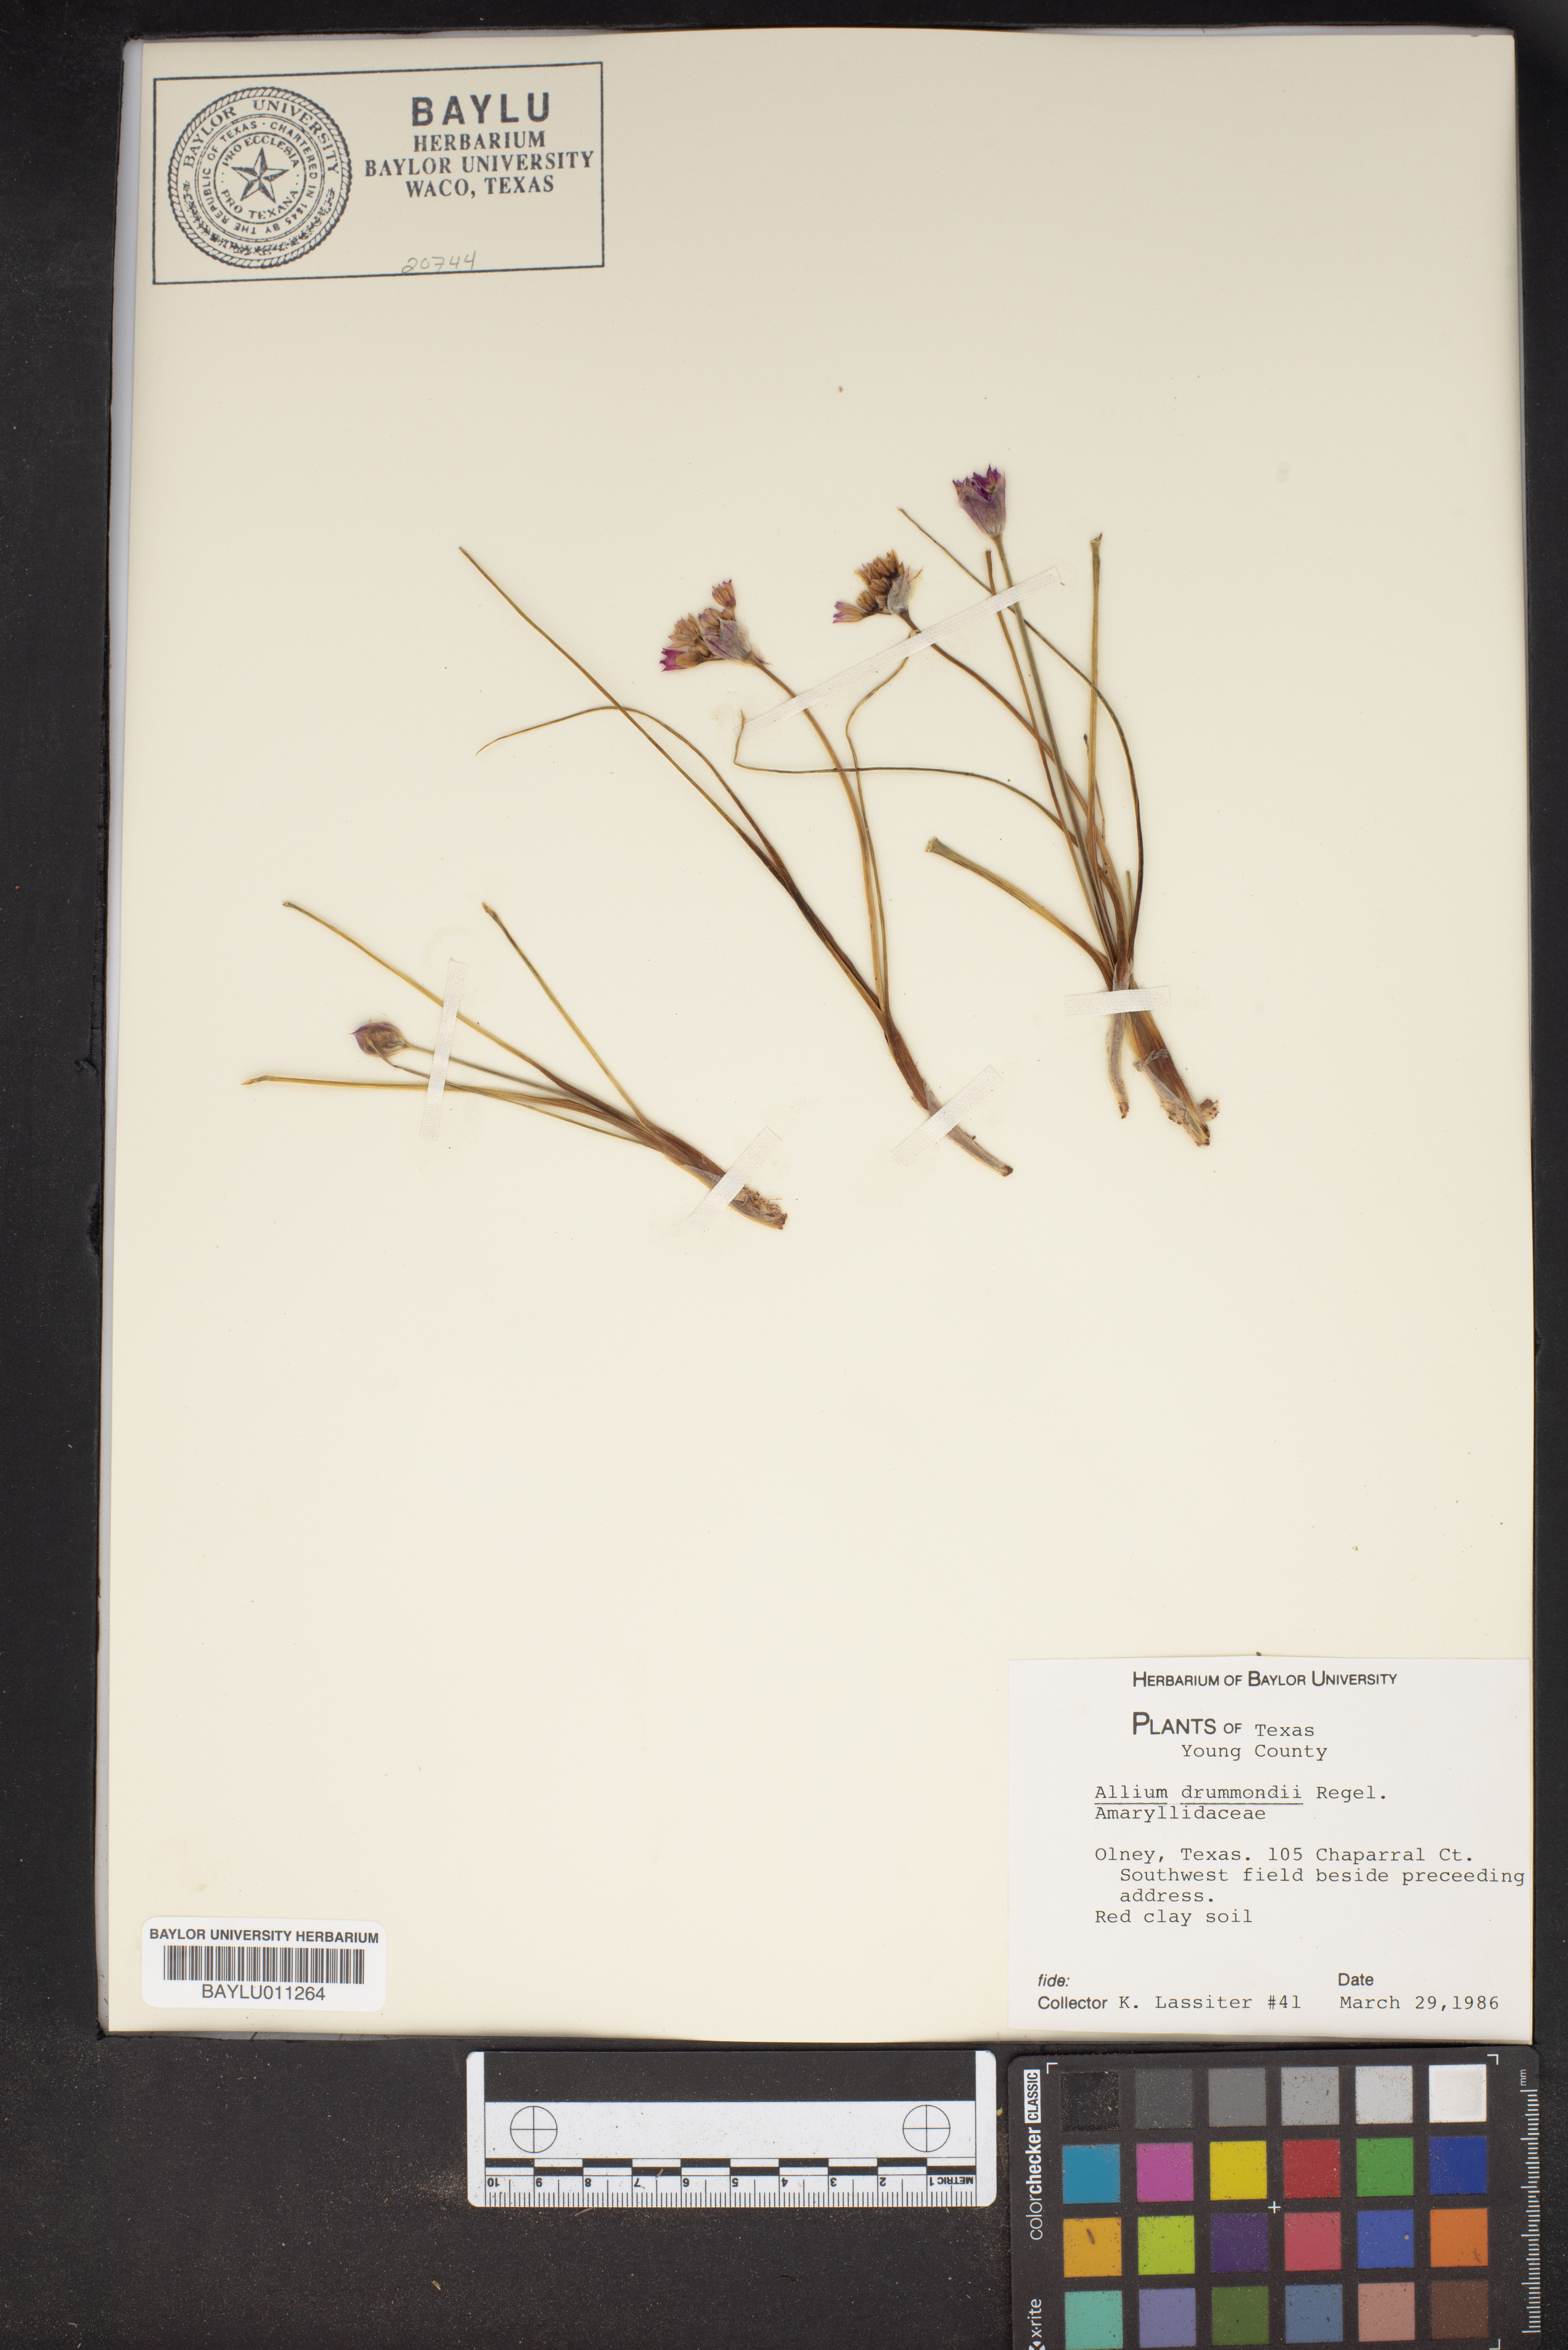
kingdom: Plantae
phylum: Tracheophyta
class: Liliopsida
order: Asparagales
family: Amaryllidaceae
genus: Allium
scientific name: Allium drummondii
